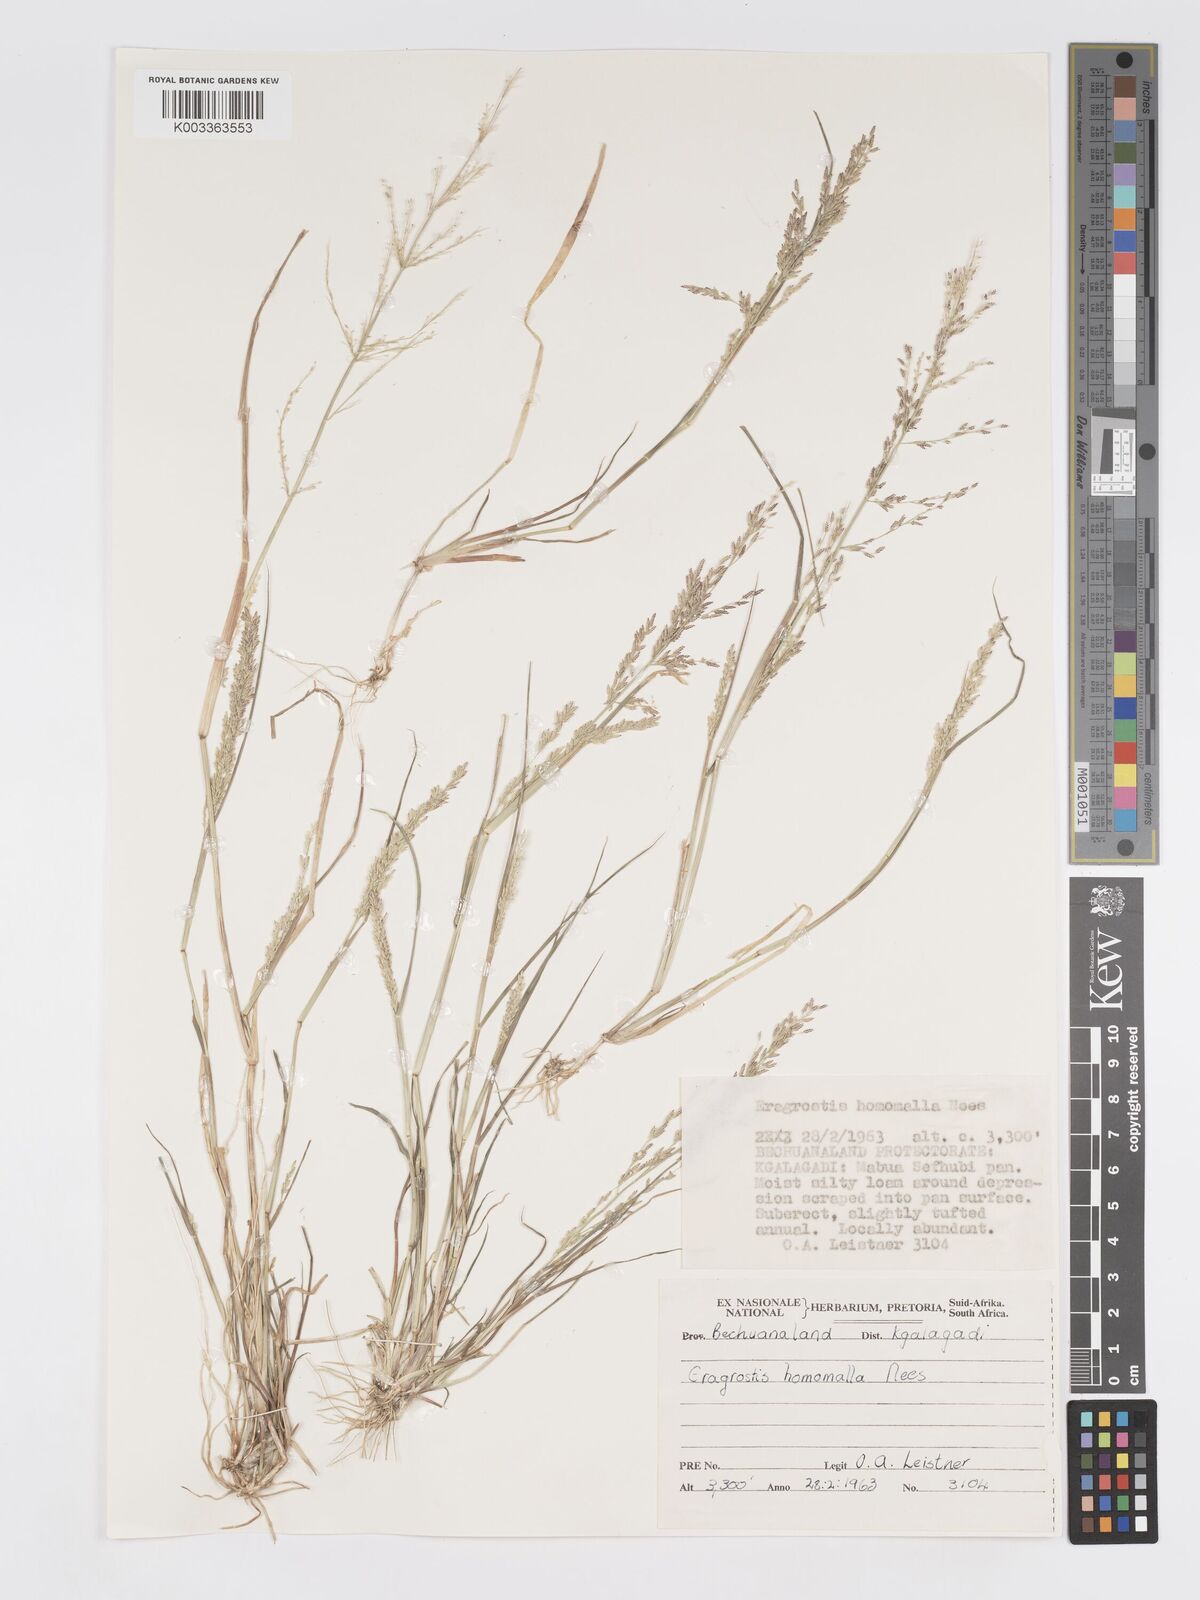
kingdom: Plantae
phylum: Tracheophyta
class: Liliopsida
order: Poales
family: Poaceae
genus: Eragrostis
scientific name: Eragrostis homomalla
